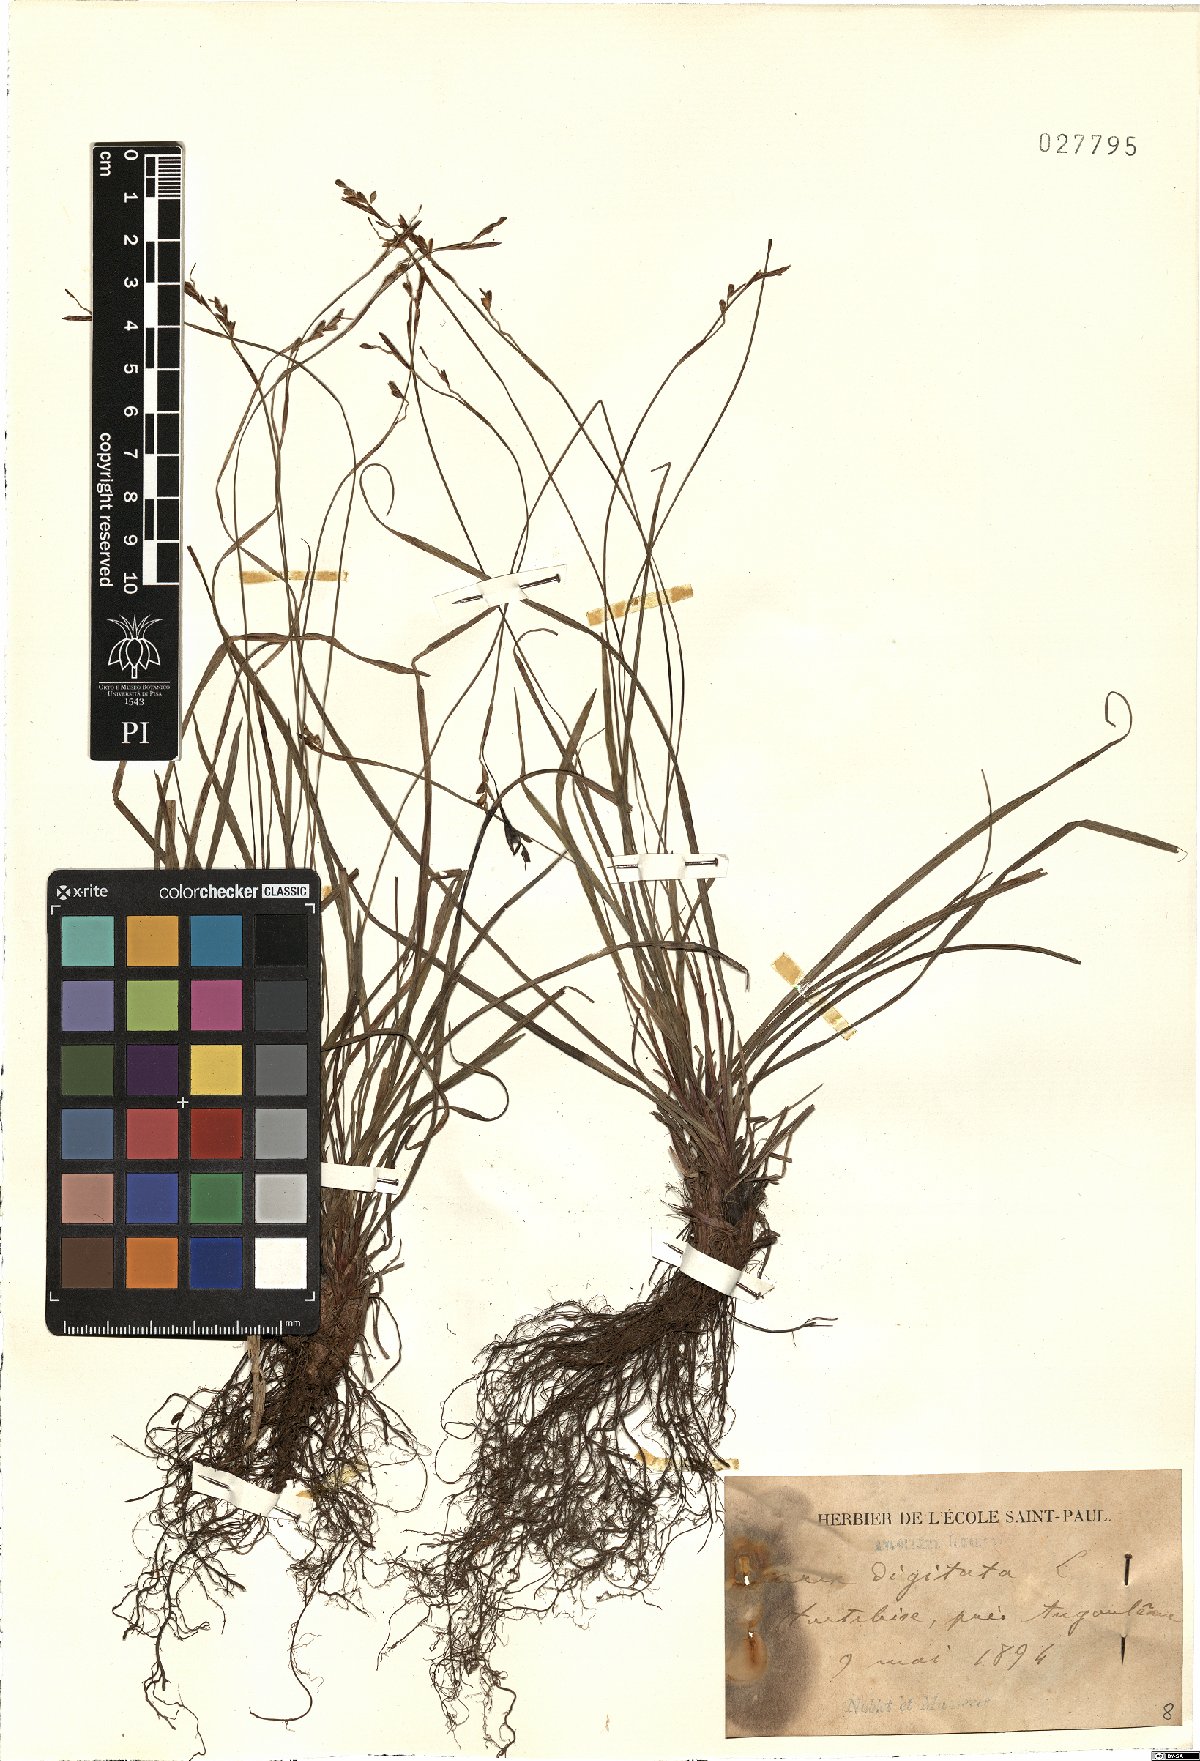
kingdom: Plantae
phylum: Tracheophyta
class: Liliopsida
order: Poales
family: Cyperaceae
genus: Carex
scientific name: Carex digitata
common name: Fingered sedge
